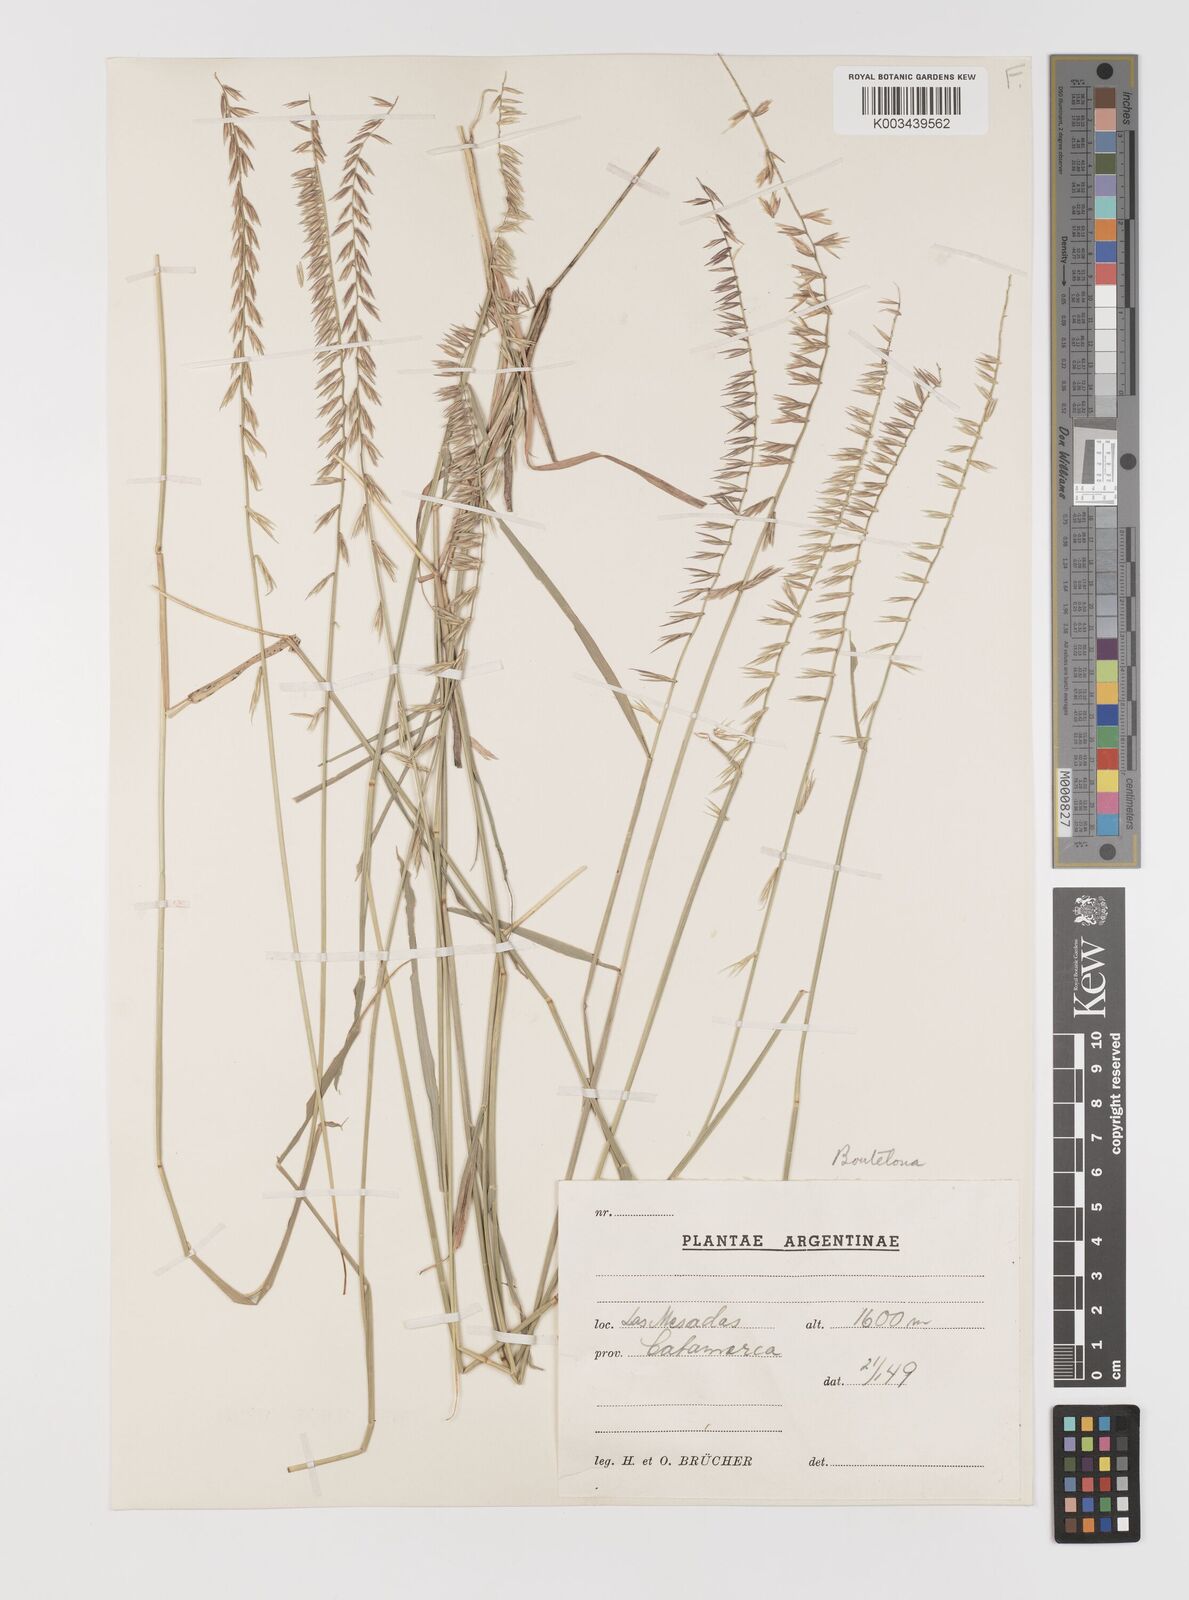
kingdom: Plantae
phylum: Tracheophyta
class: Liliopsida
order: Poales
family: Poaceae
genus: Bouteloua
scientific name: Bouteloua curtipendula
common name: Side-oats grama
